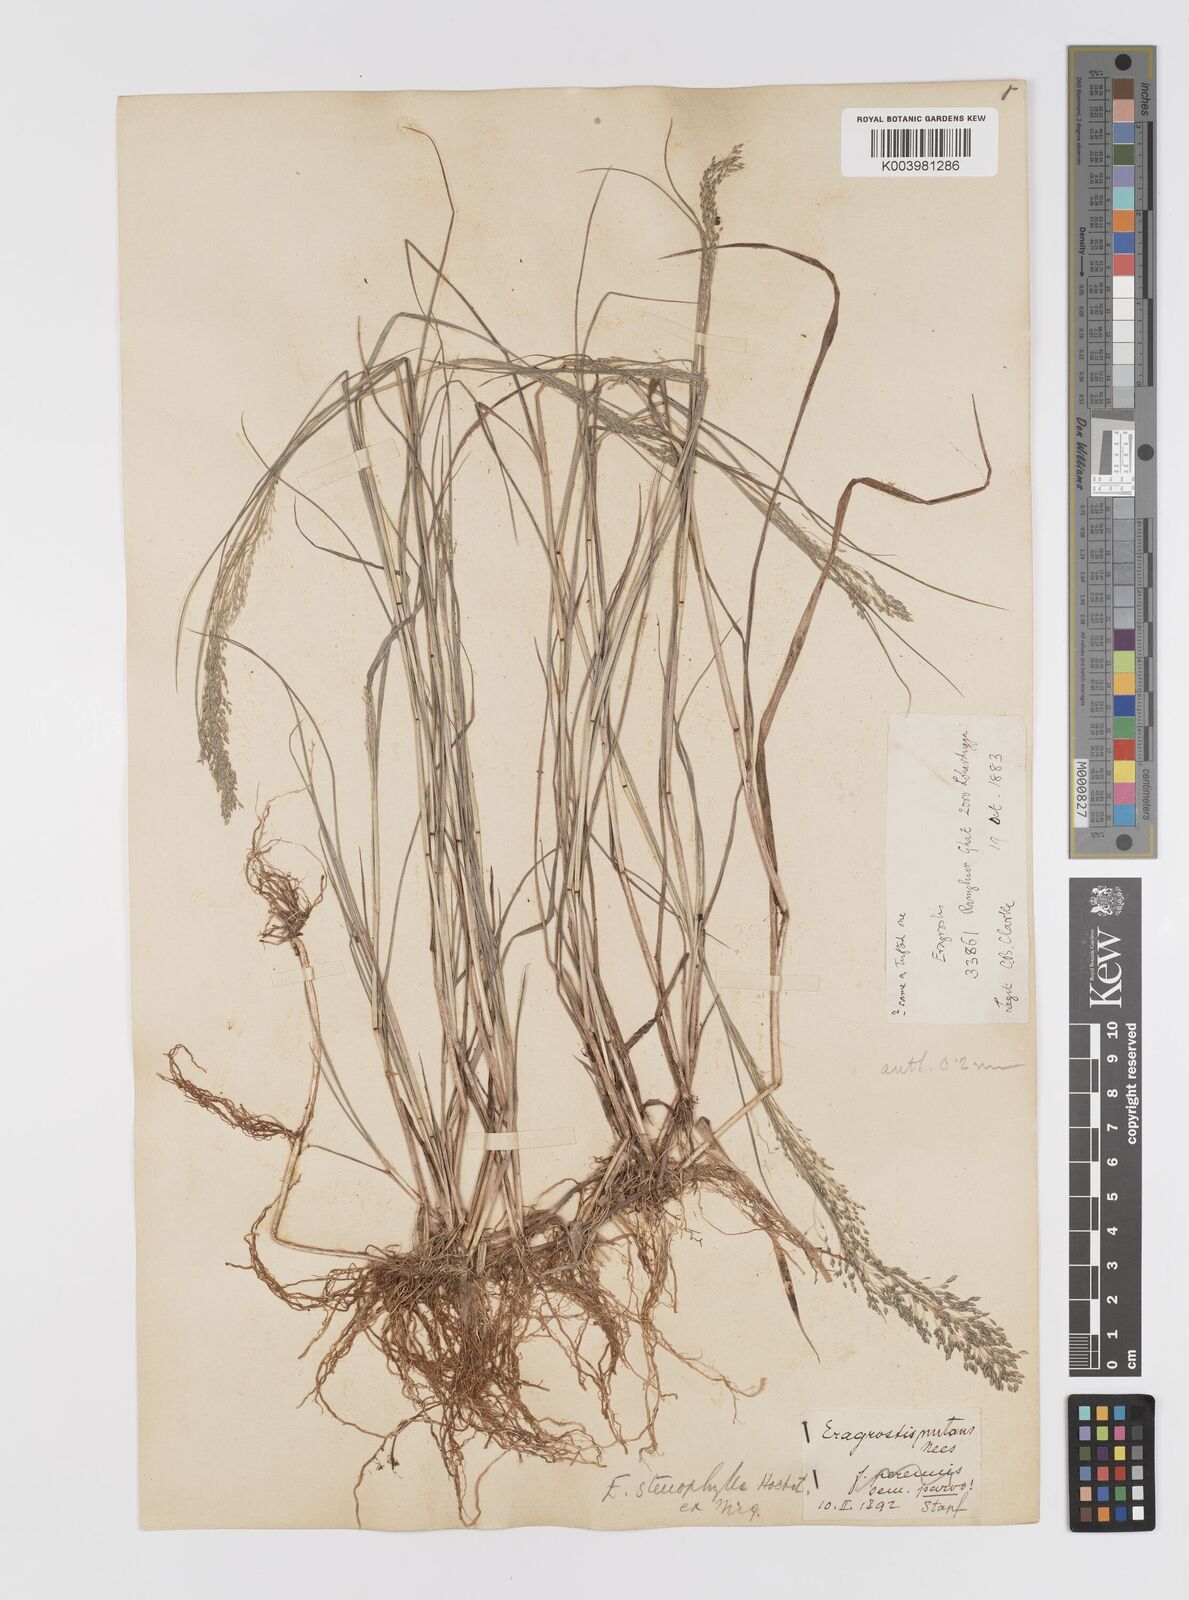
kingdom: Plantae
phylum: Tracheophyta
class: Liliopsida
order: Poales
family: Poaceae
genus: Eragrostis
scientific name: Eragrostis gangetica
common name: Slimflower lovegrass
